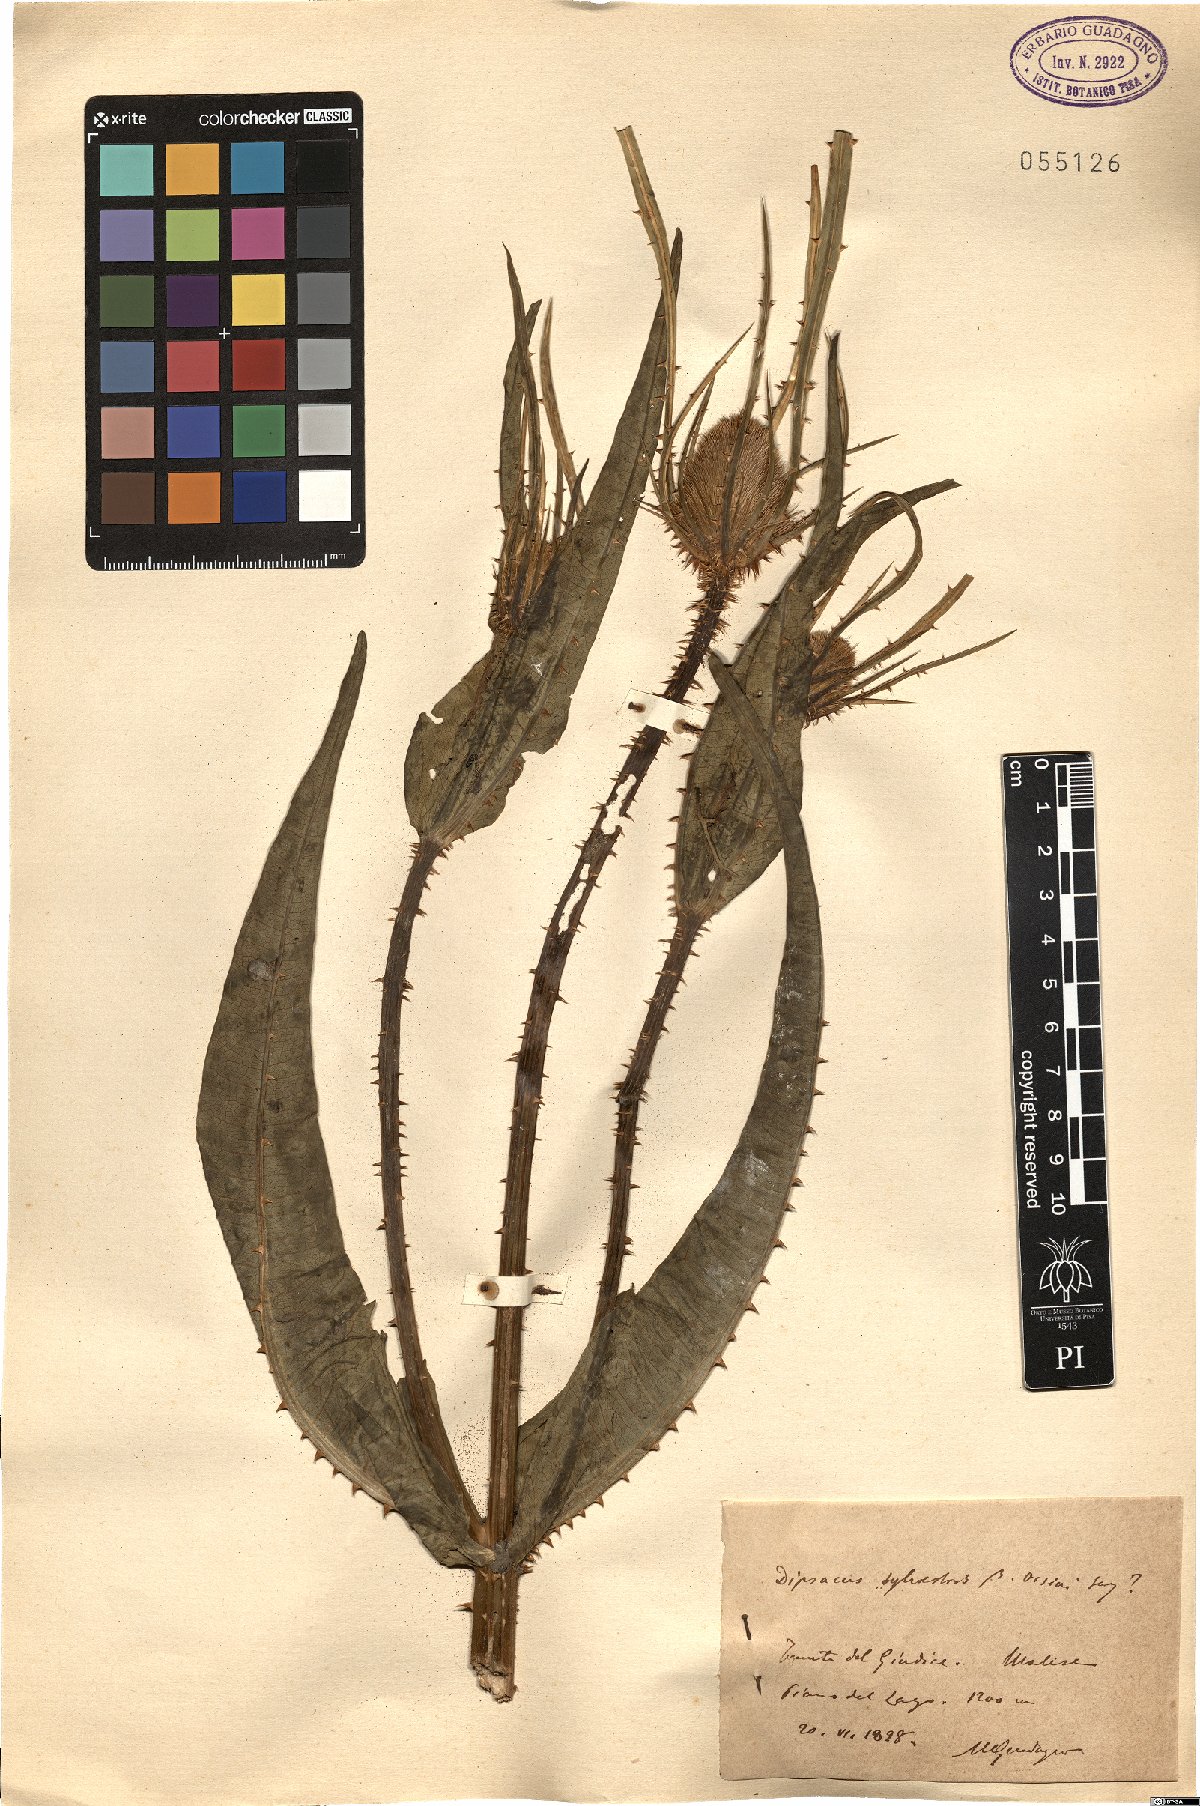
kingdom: Plantae
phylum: Tracheophyta
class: Magnoliopsida
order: Dipsacales
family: Caprifoliaceae
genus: Dipsacus
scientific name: Dipsacus fullonum
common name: Teasel
